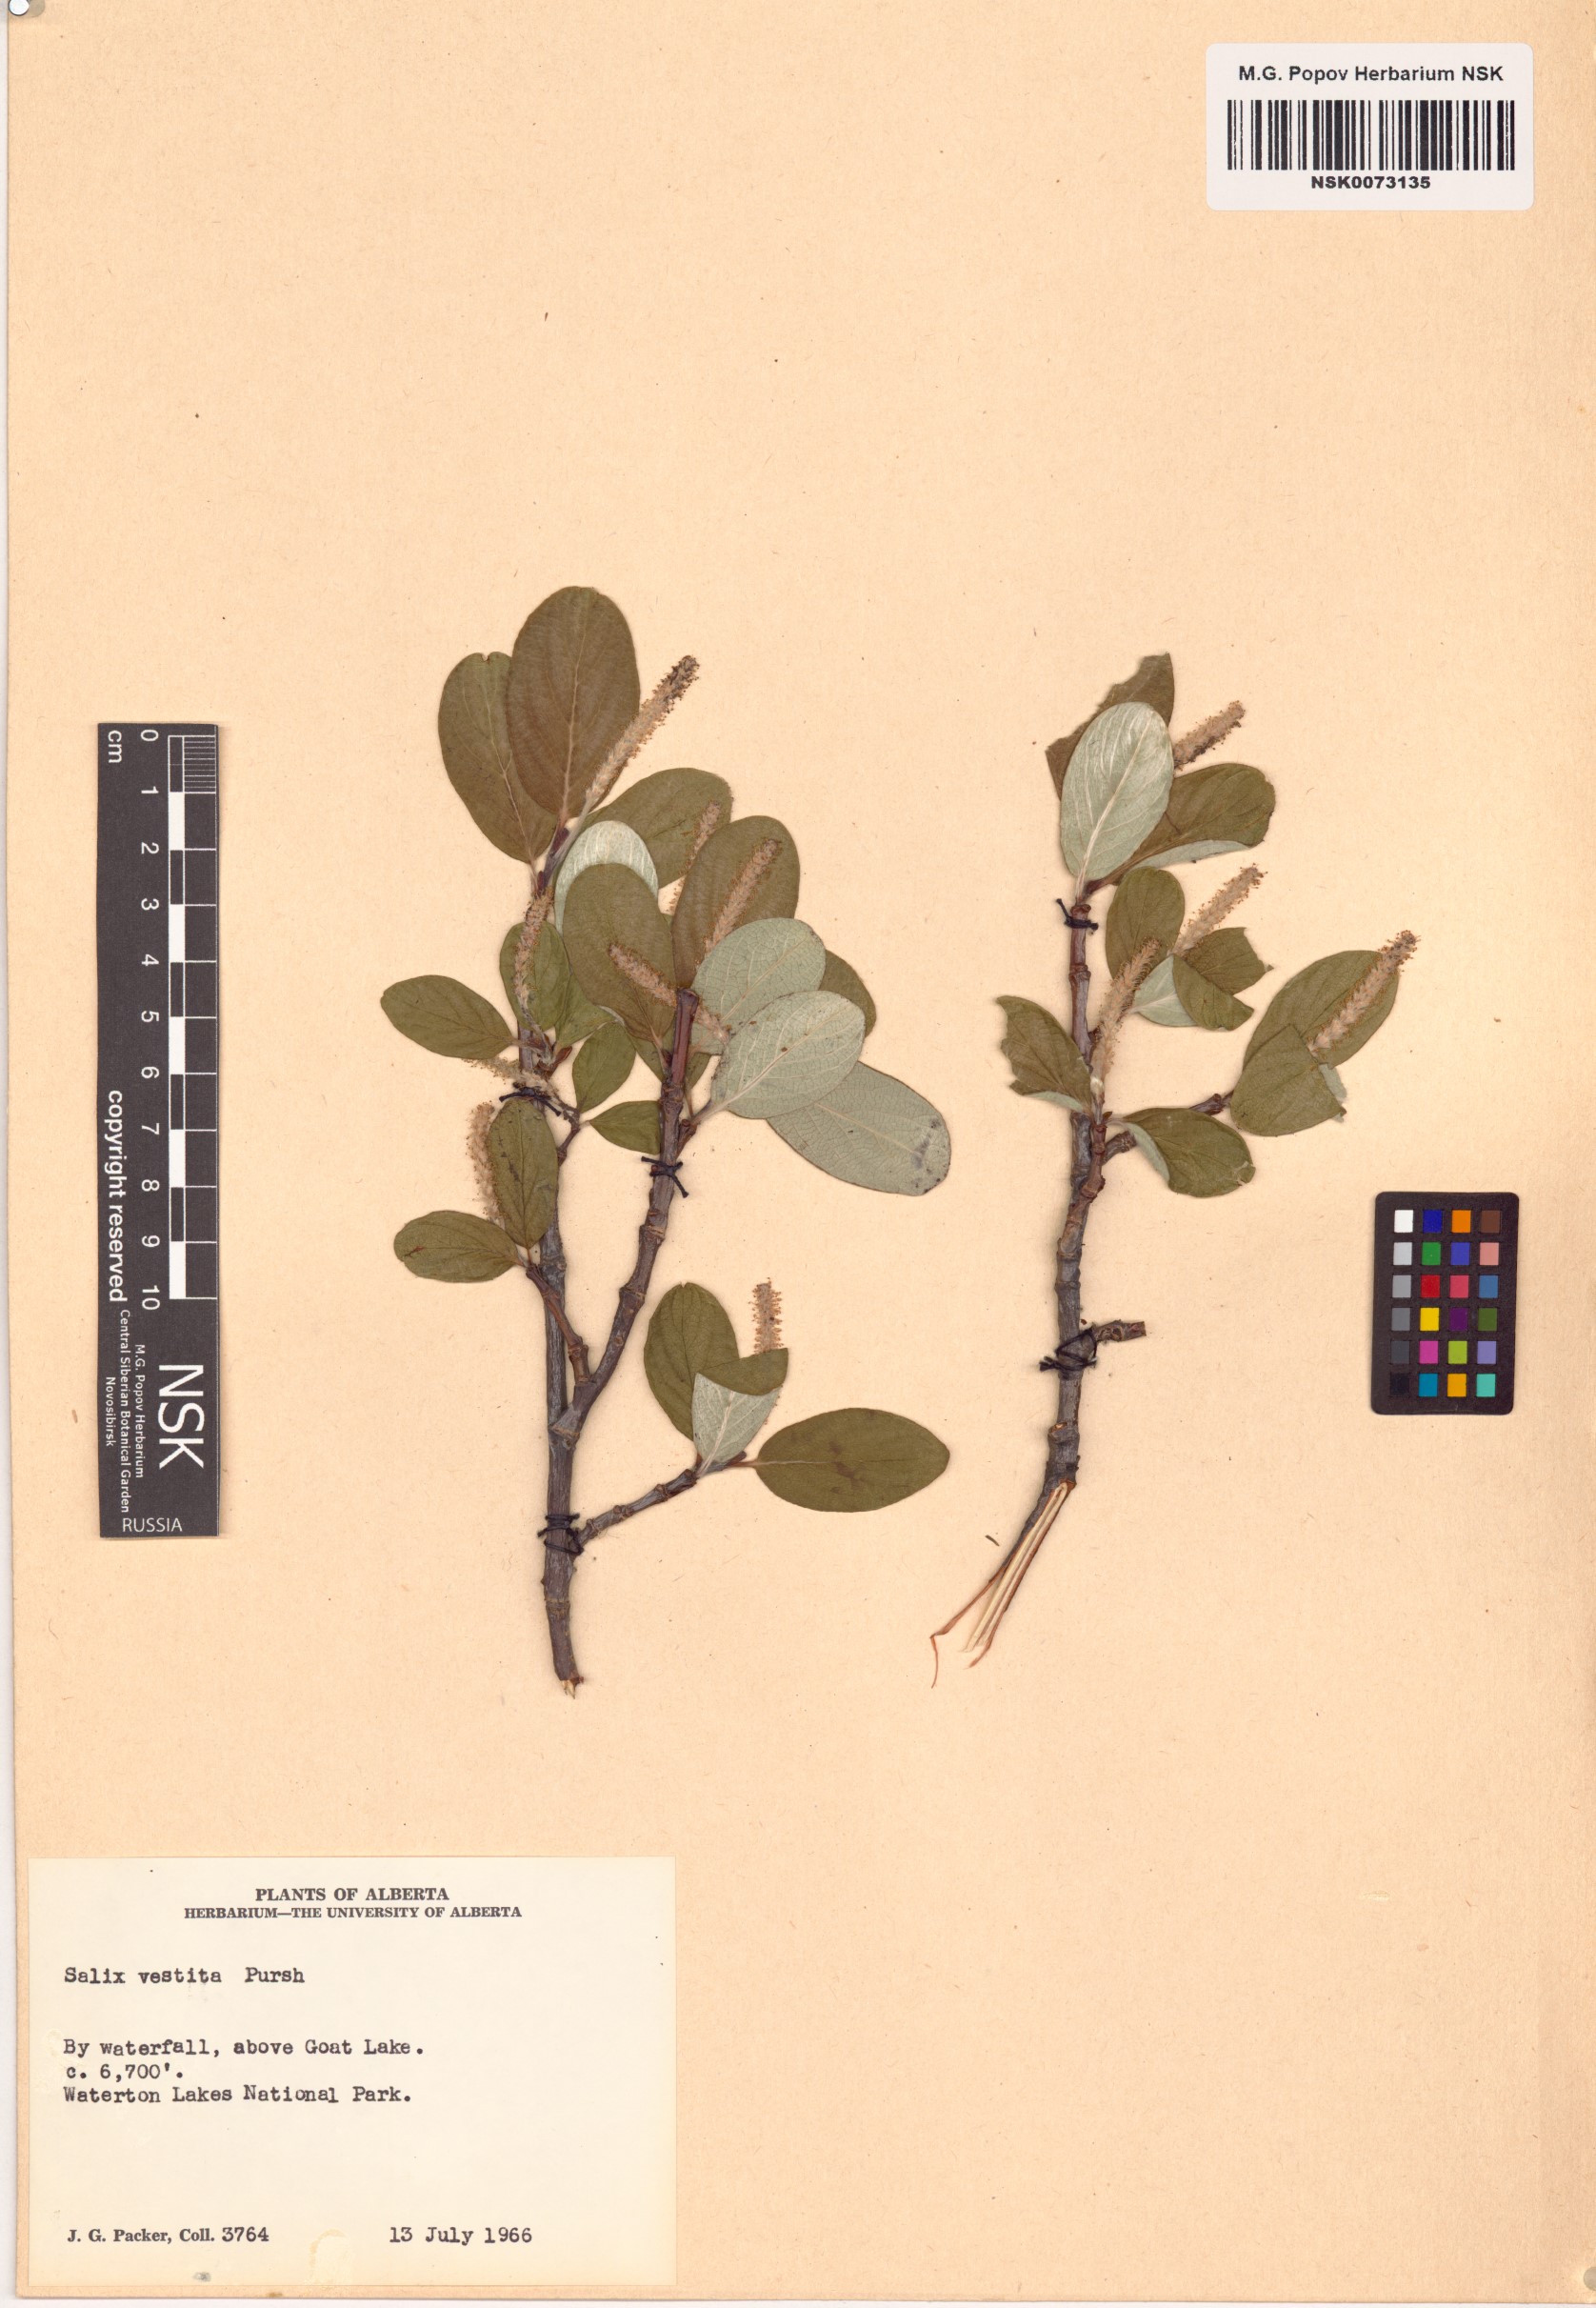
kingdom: Plantae
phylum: Tracheophyta
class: Magnoliopsida
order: Malpighiales
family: Salicaceae
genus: Salix
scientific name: Salix vestita
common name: Hairy willow
